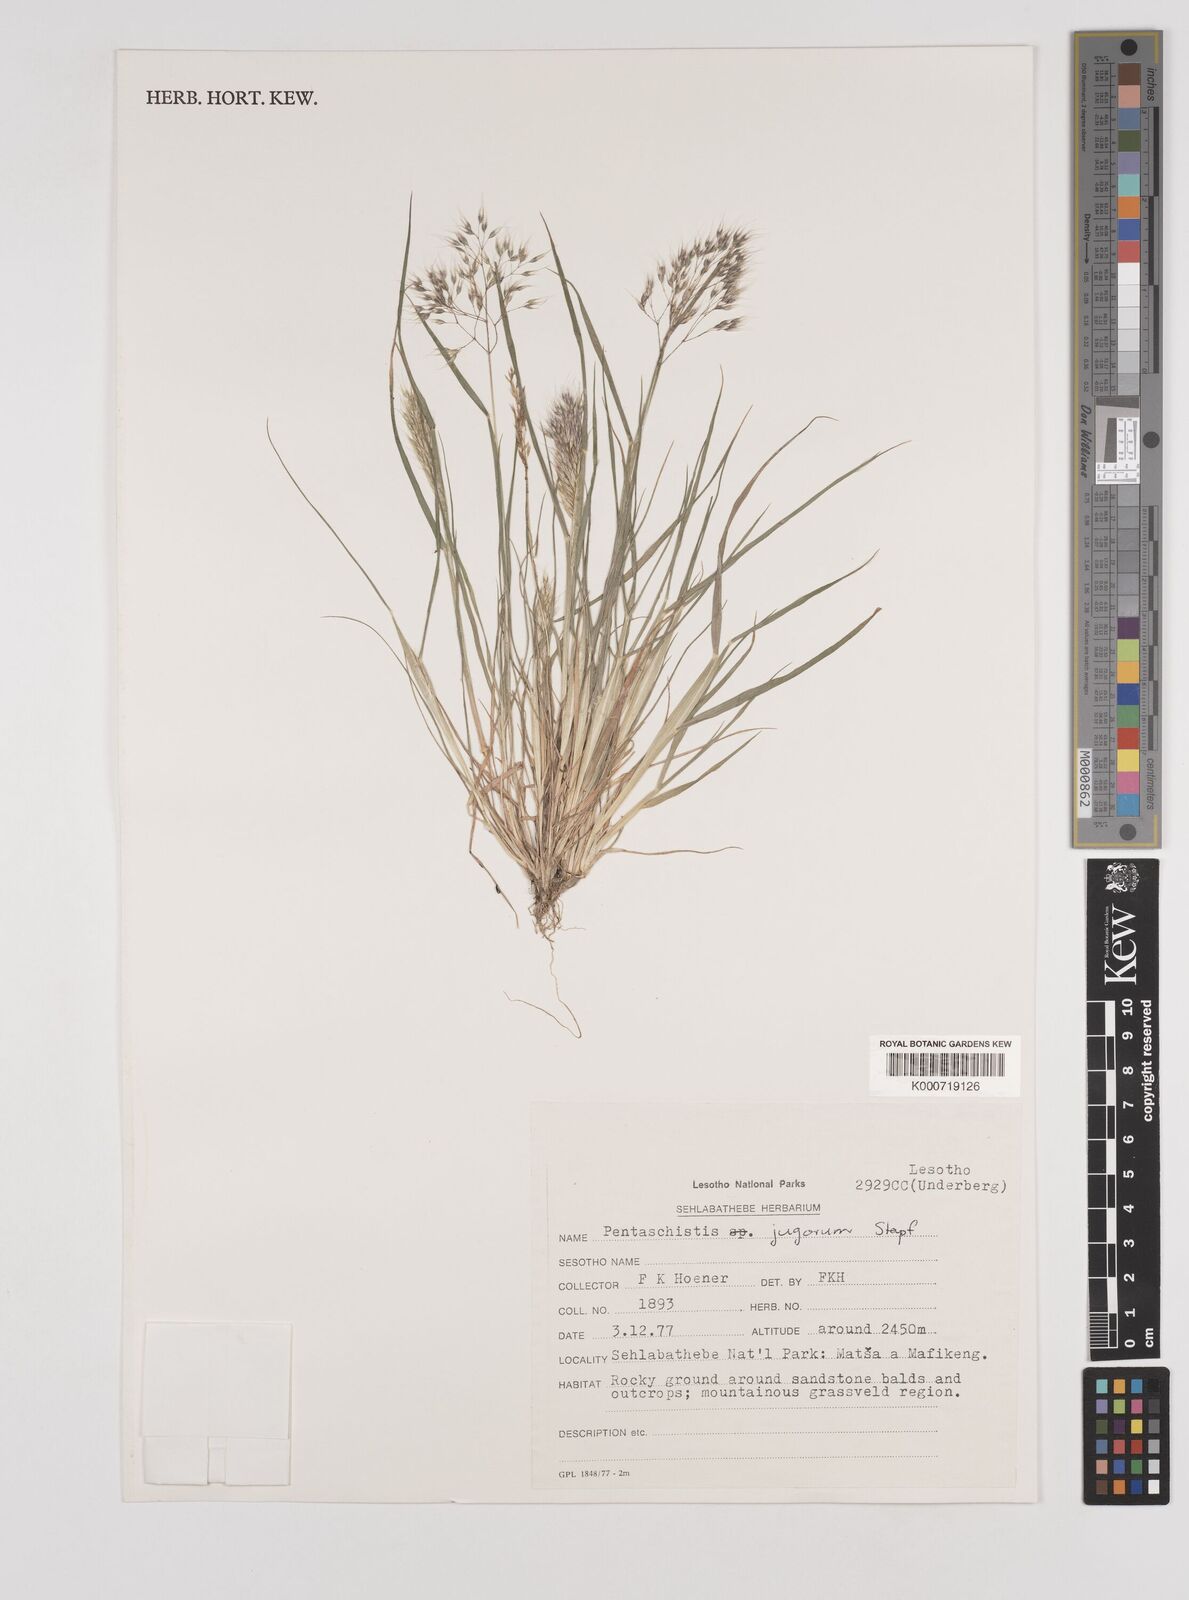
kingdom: Plantae
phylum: Tracheophyta
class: Liliopsida
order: Poales
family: Poaceae
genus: Pentameris
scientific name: Pentameris airoides
